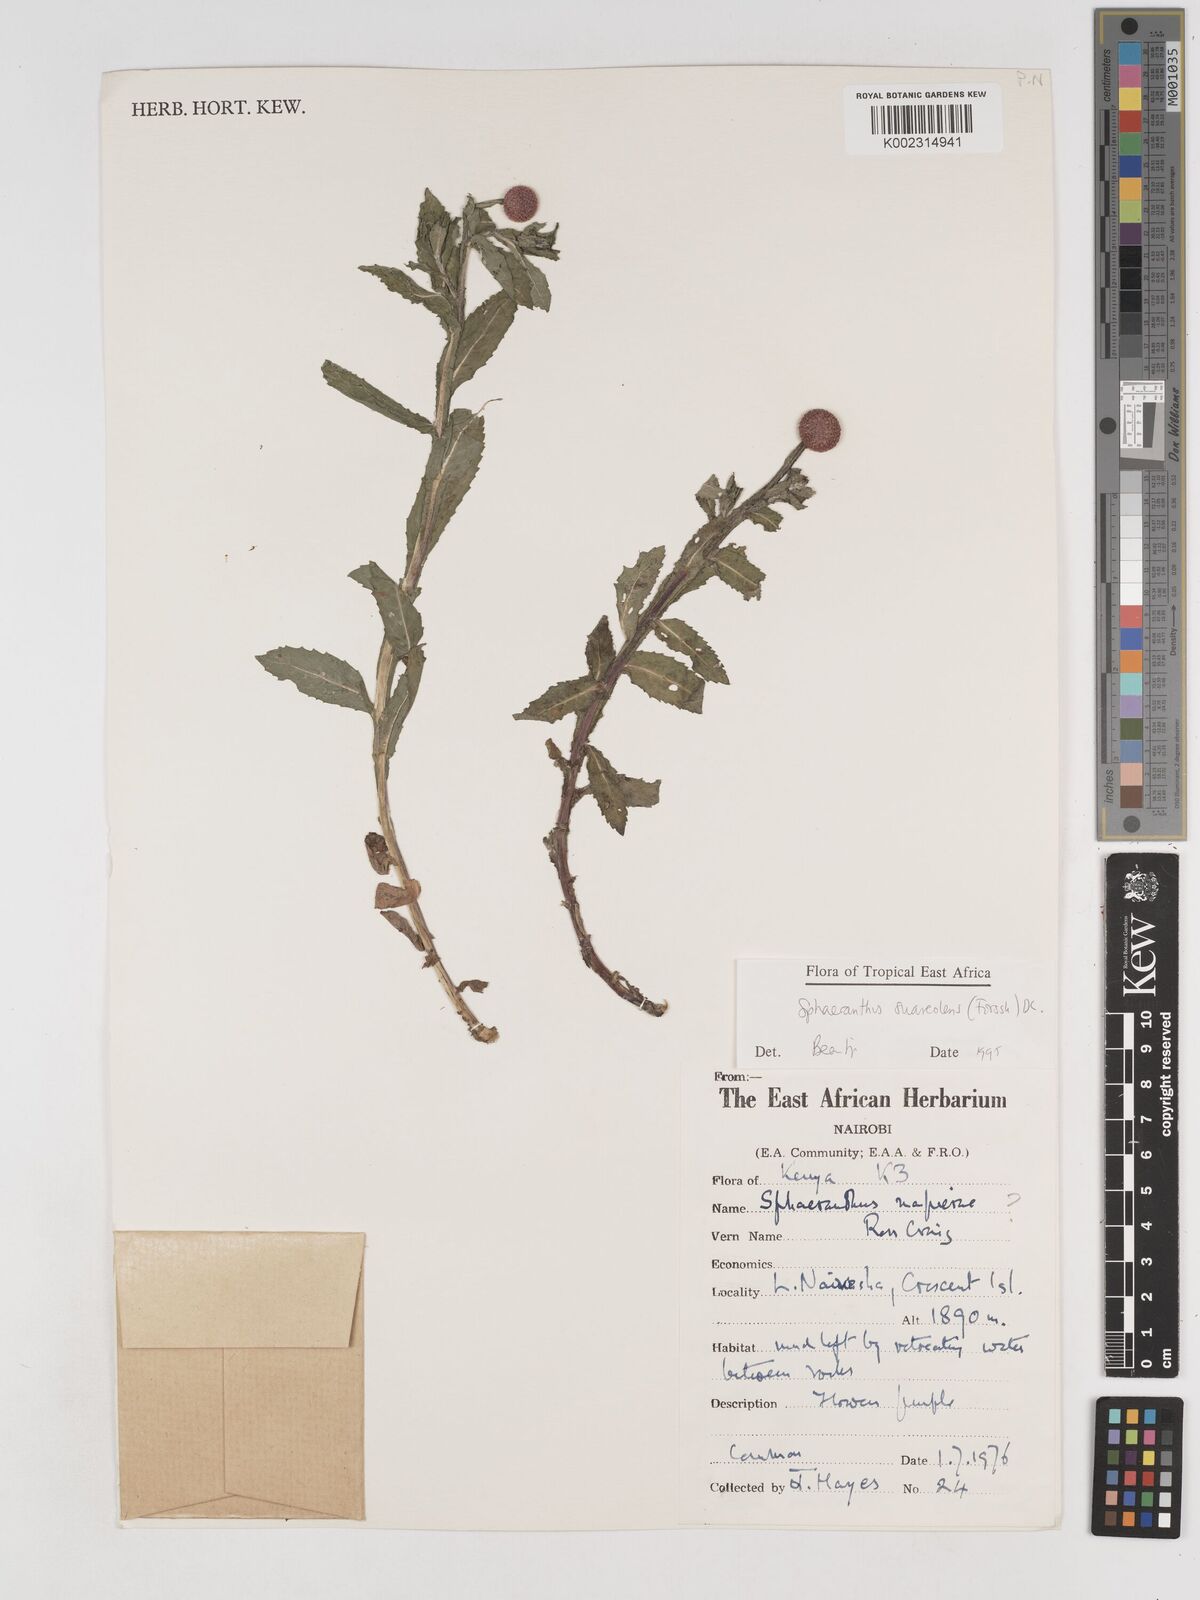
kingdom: Plantae
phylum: Tracheophyta
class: Magnoliopsida
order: Asterales
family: Asteraceae
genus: Sphaeranthus
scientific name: Sphaeranthus suaveolens
